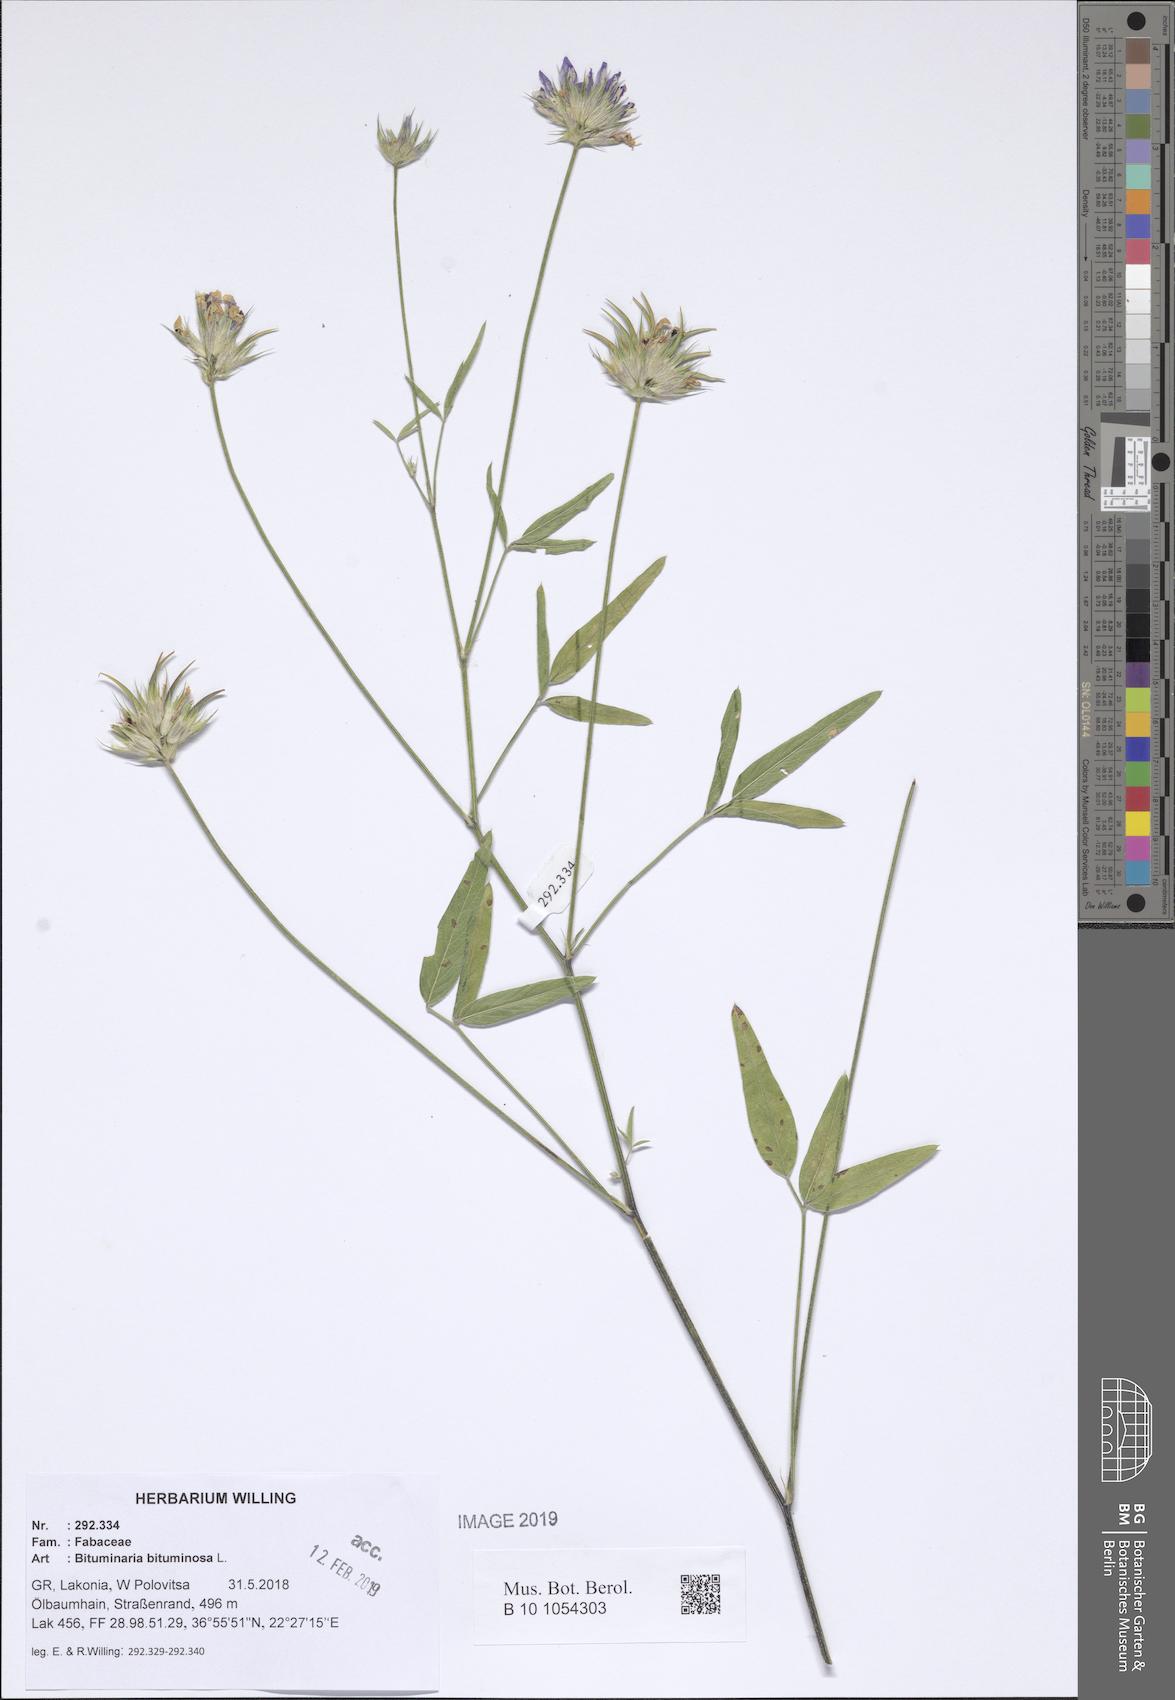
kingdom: Plantae
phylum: Tracheophyta
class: Magnoliopsida
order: Fabales
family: Fabaceae
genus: Bituminaria
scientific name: Bituminaria bituminosa
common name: Arabian pea
